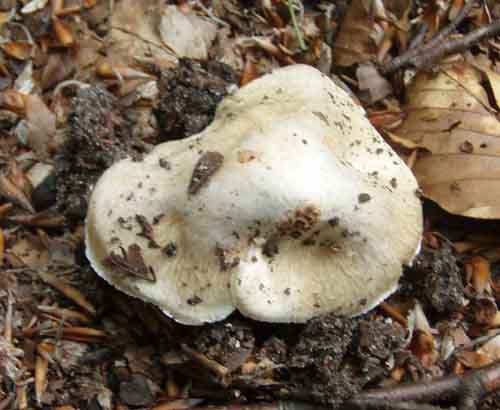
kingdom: Fungi
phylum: Basidiomycota
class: Agaricomycetes
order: Agaricales
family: Inocybaceae
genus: Inosperma
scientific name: Inosperma erubescens
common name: giftig trævlhat
